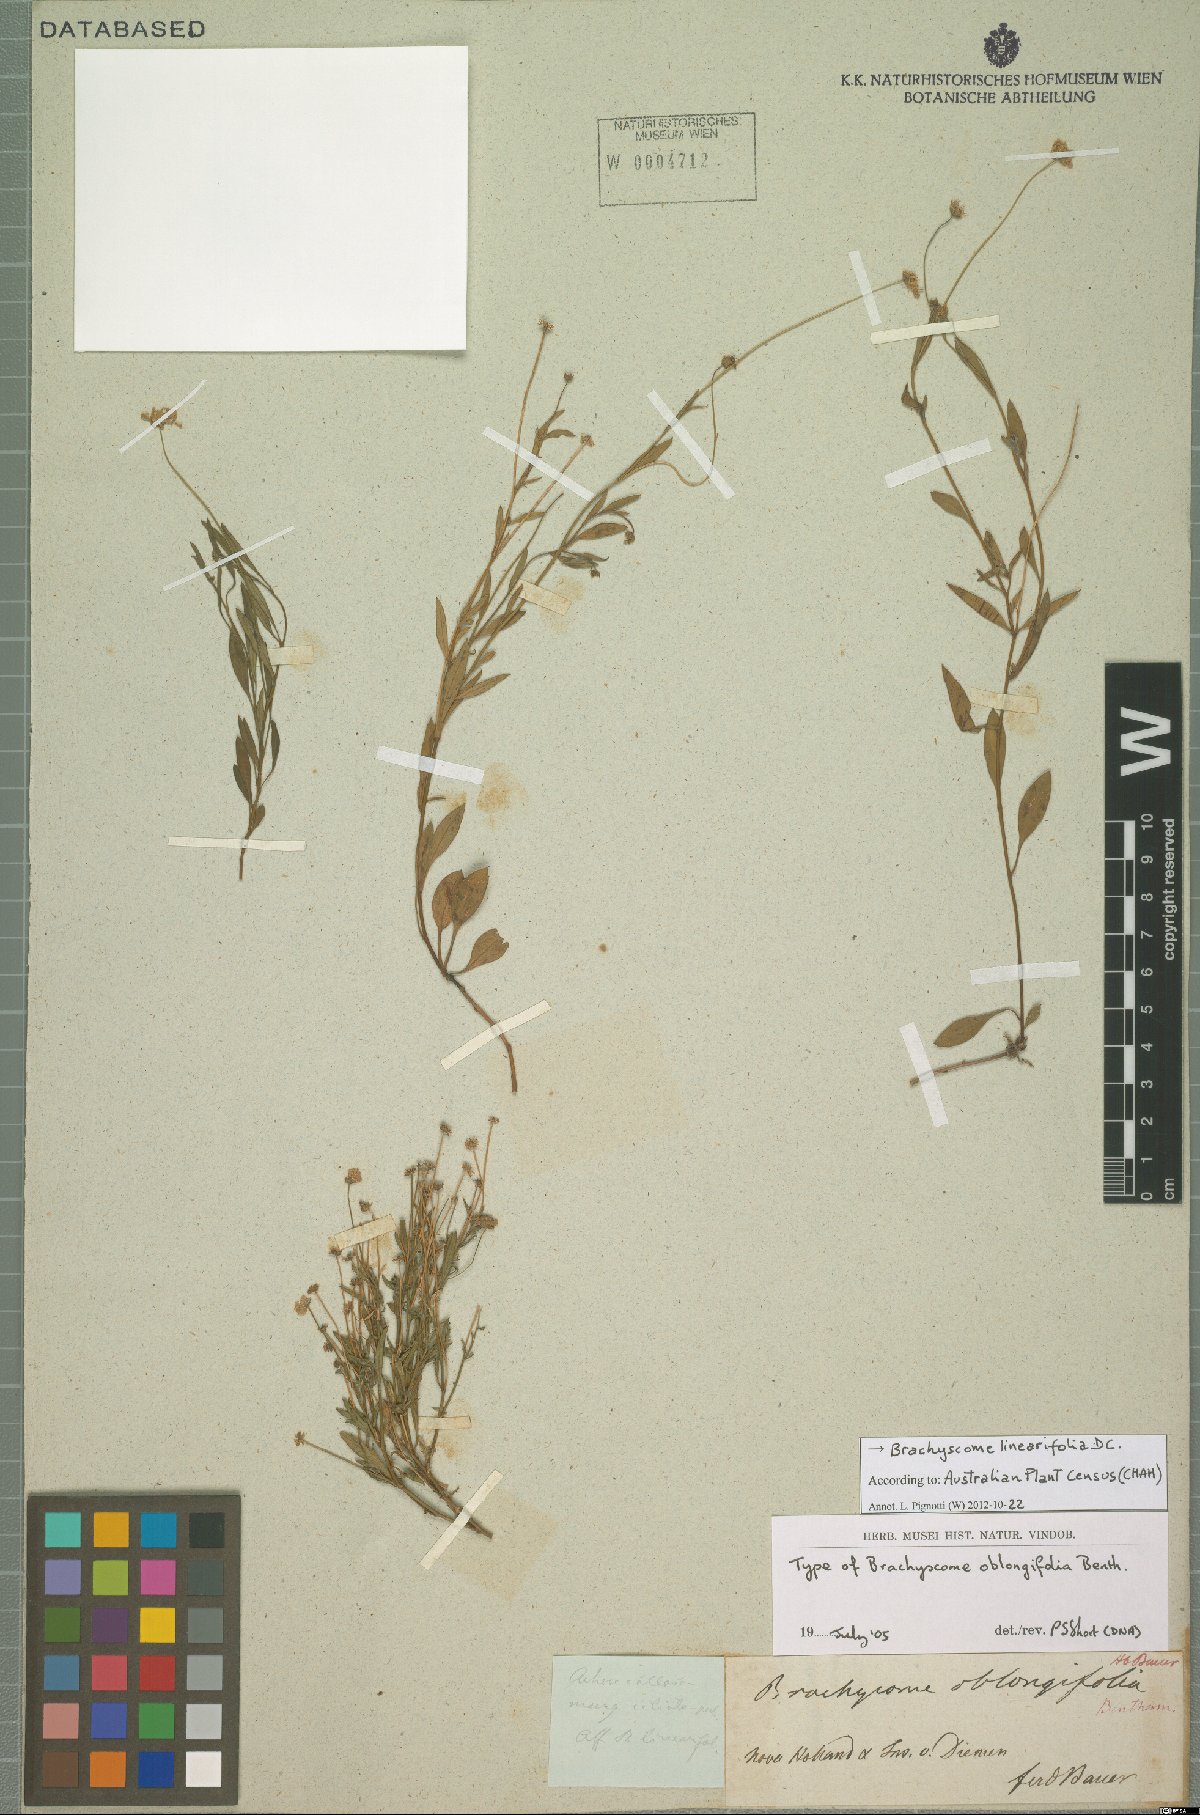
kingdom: Plantae
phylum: Tracheophyta
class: Magnoliopsida
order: Asterales
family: Asteraceae
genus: Allittia
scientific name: Allittia cardiocarpa
